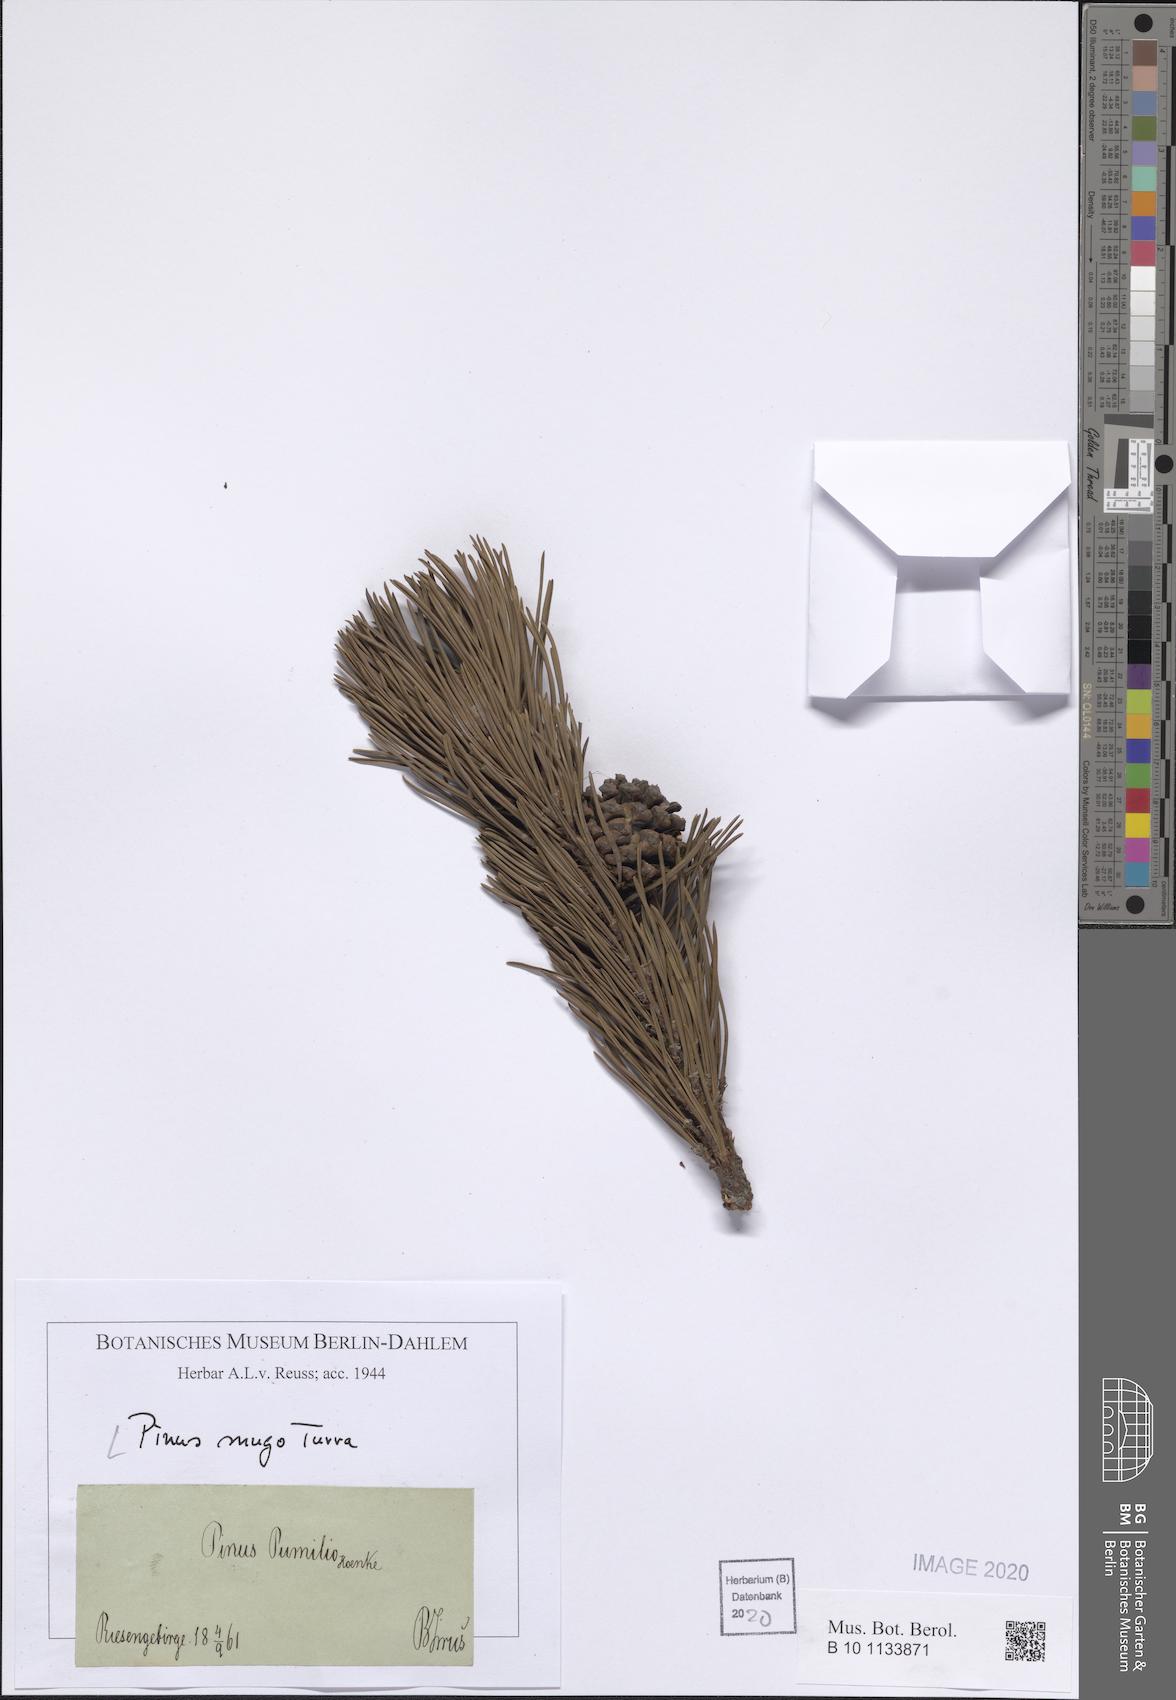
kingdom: Plantae
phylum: Tracheophyta
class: Pinopsida
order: Pinales
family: Pinaceae
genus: Pinus
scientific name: Pinus mugo
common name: Mugo pine
